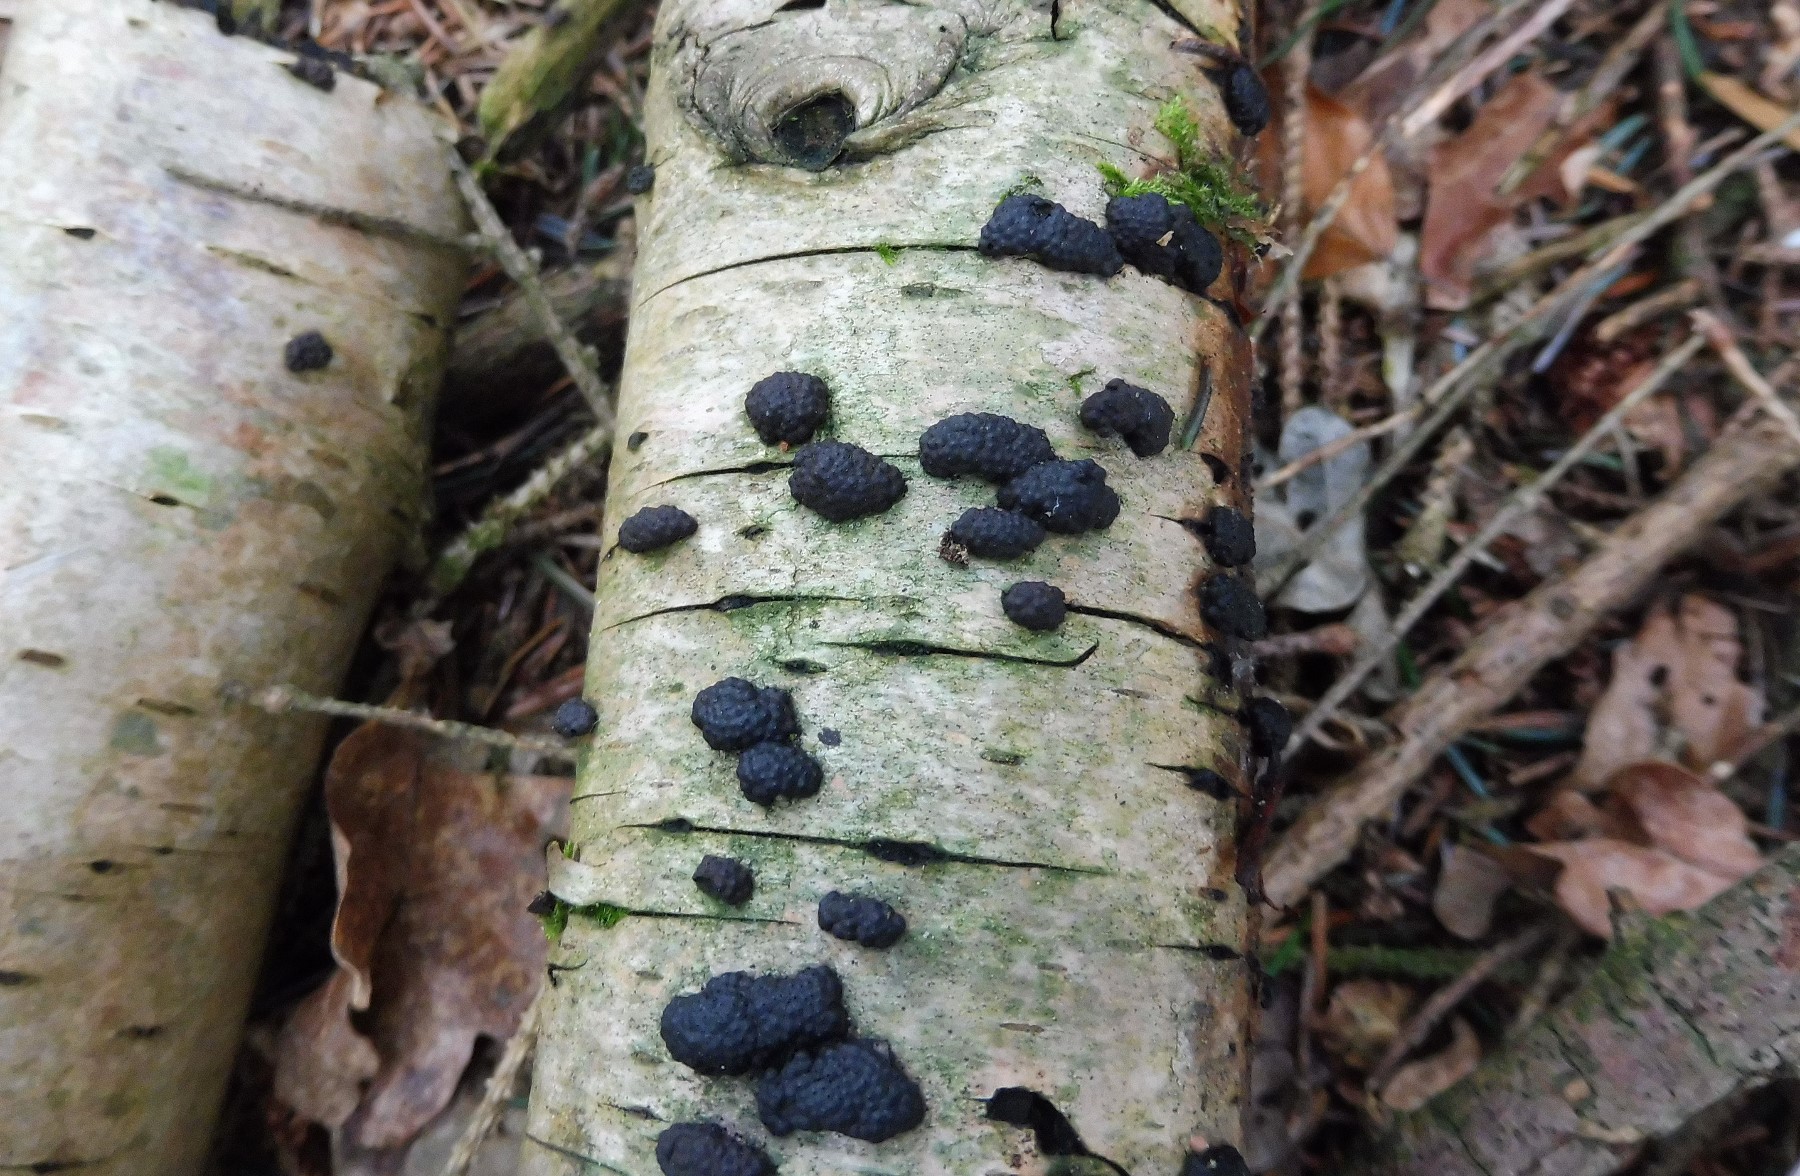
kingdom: Fungi
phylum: Ascomycota
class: Sordariomycetes
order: Xylariales
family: Hypoxylaceae
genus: Jackrogersella
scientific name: Jackrogersella multiformis
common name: foranderlig kulbær
